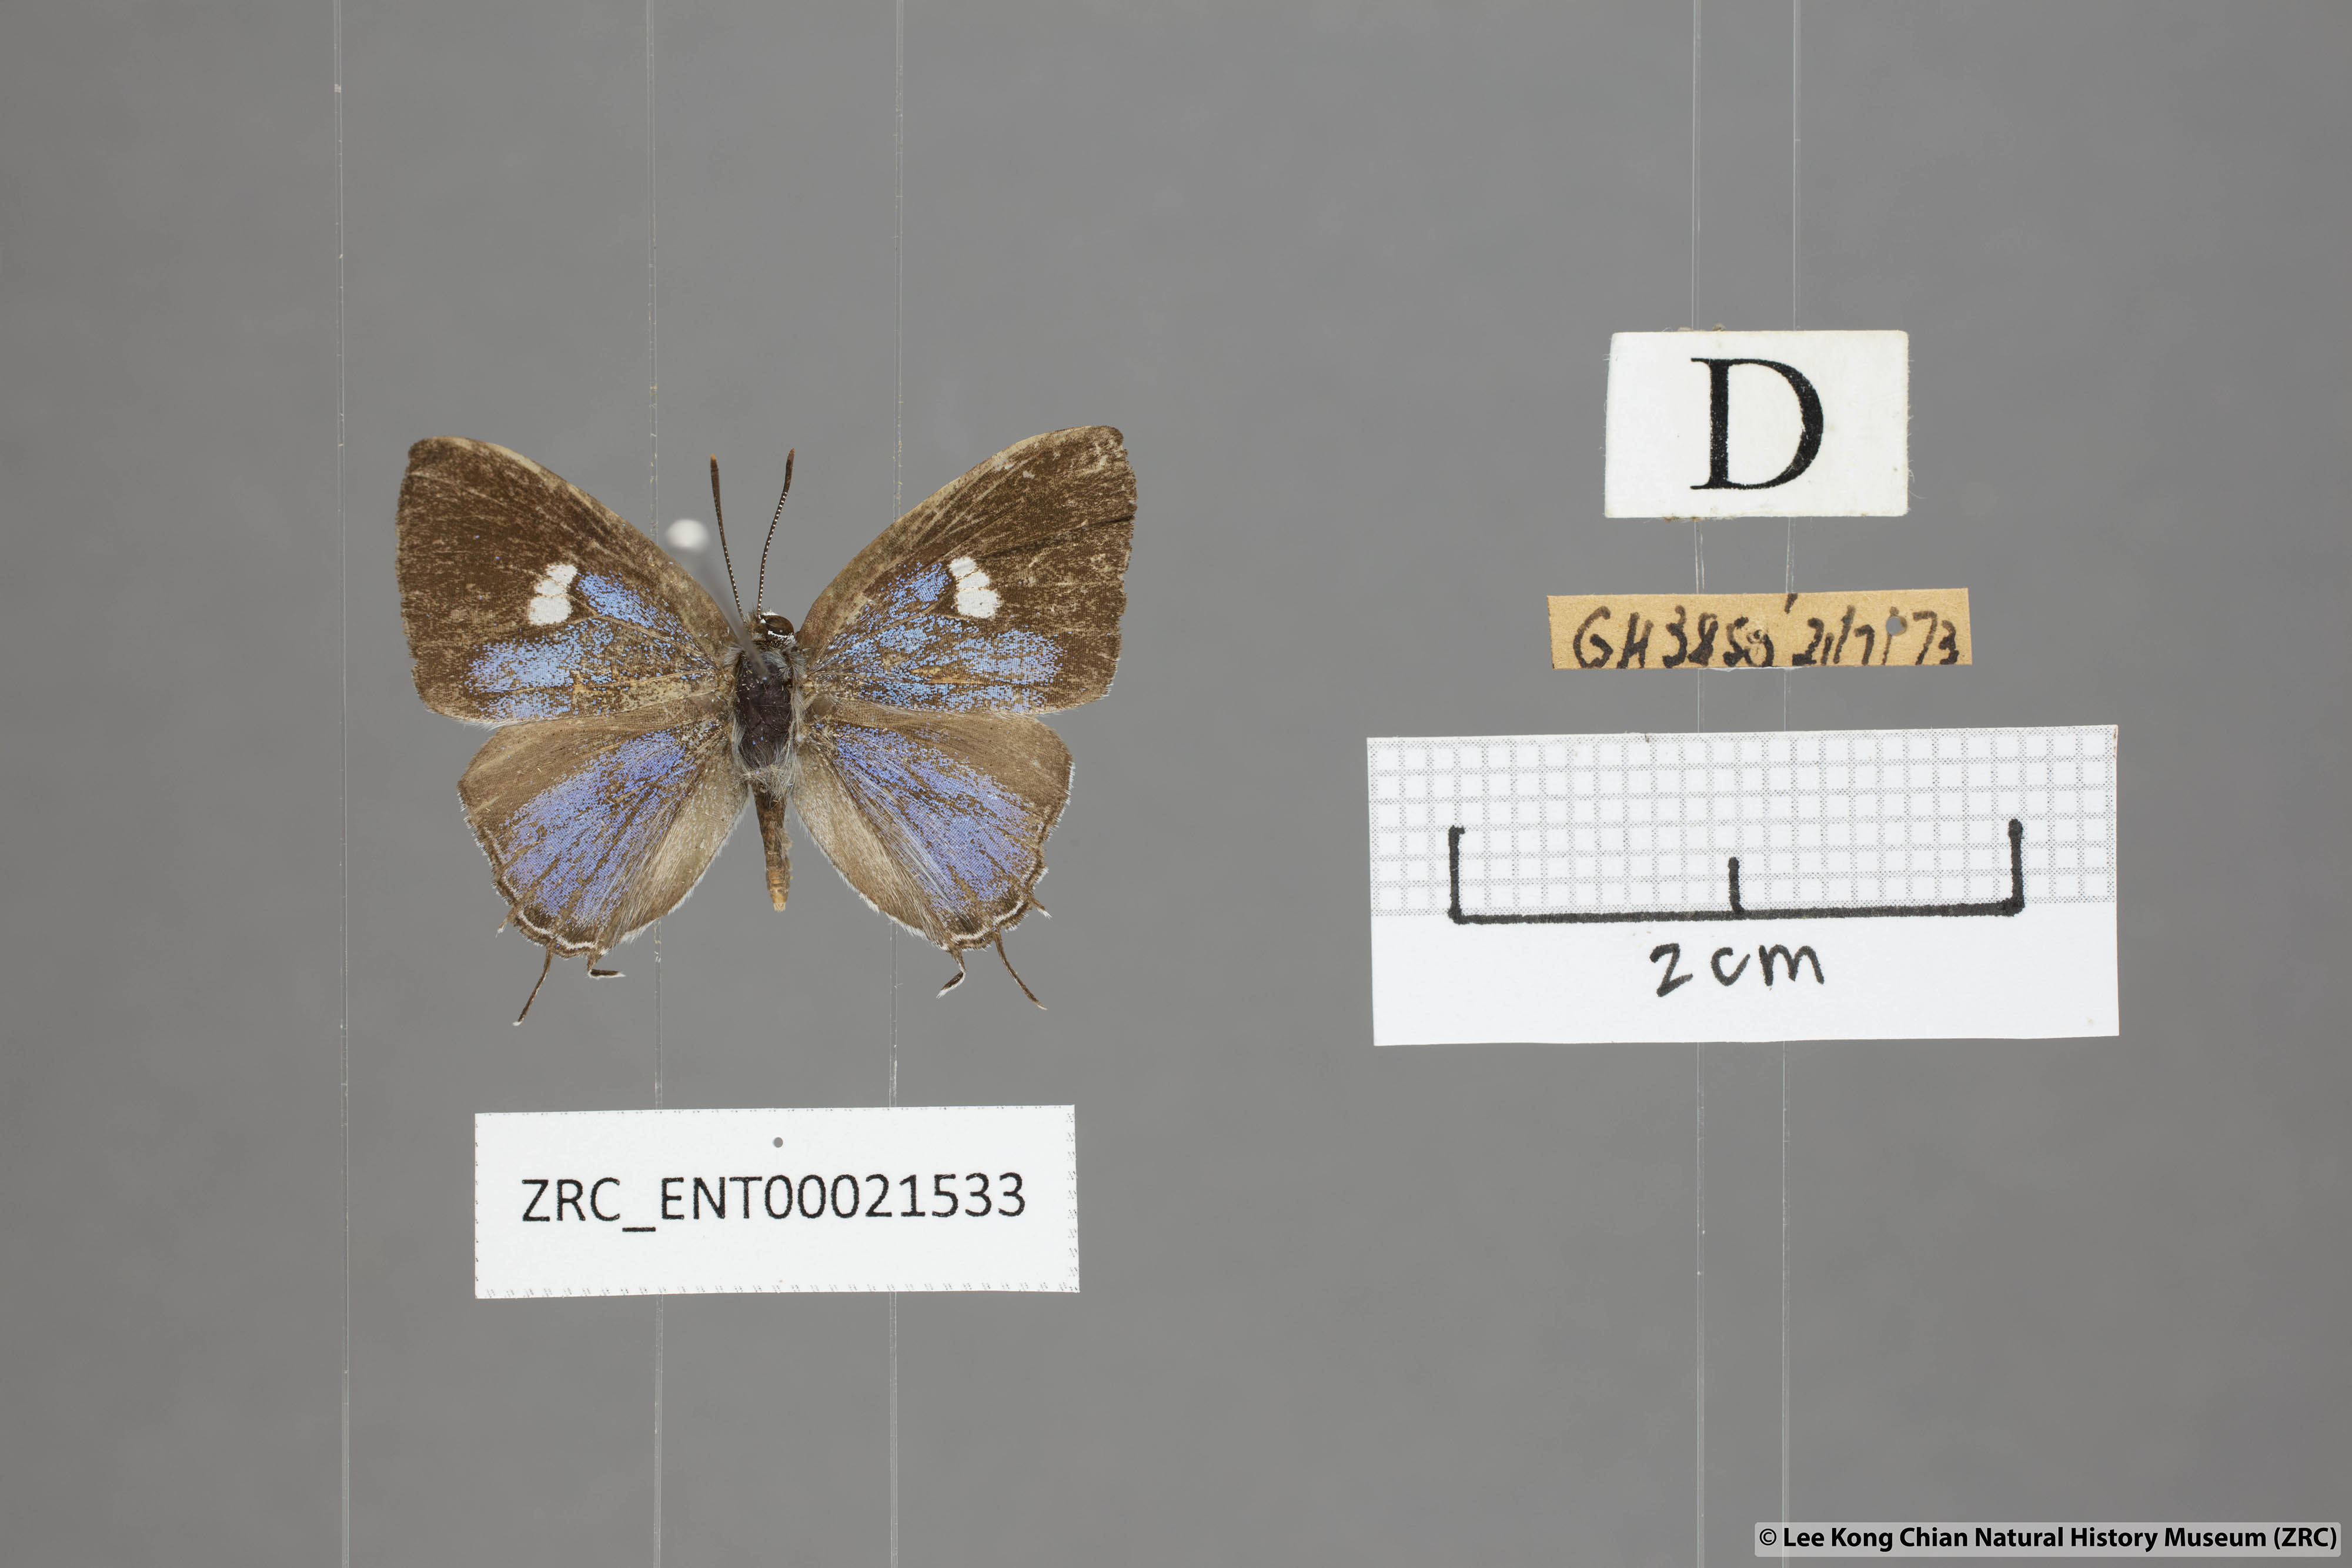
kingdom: Animalia
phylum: Arthropoda
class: Insecta
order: Lepidoptera
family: Lycaenidae
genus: Horaga
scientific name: Horaga syrinx
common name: Ambon onyx
